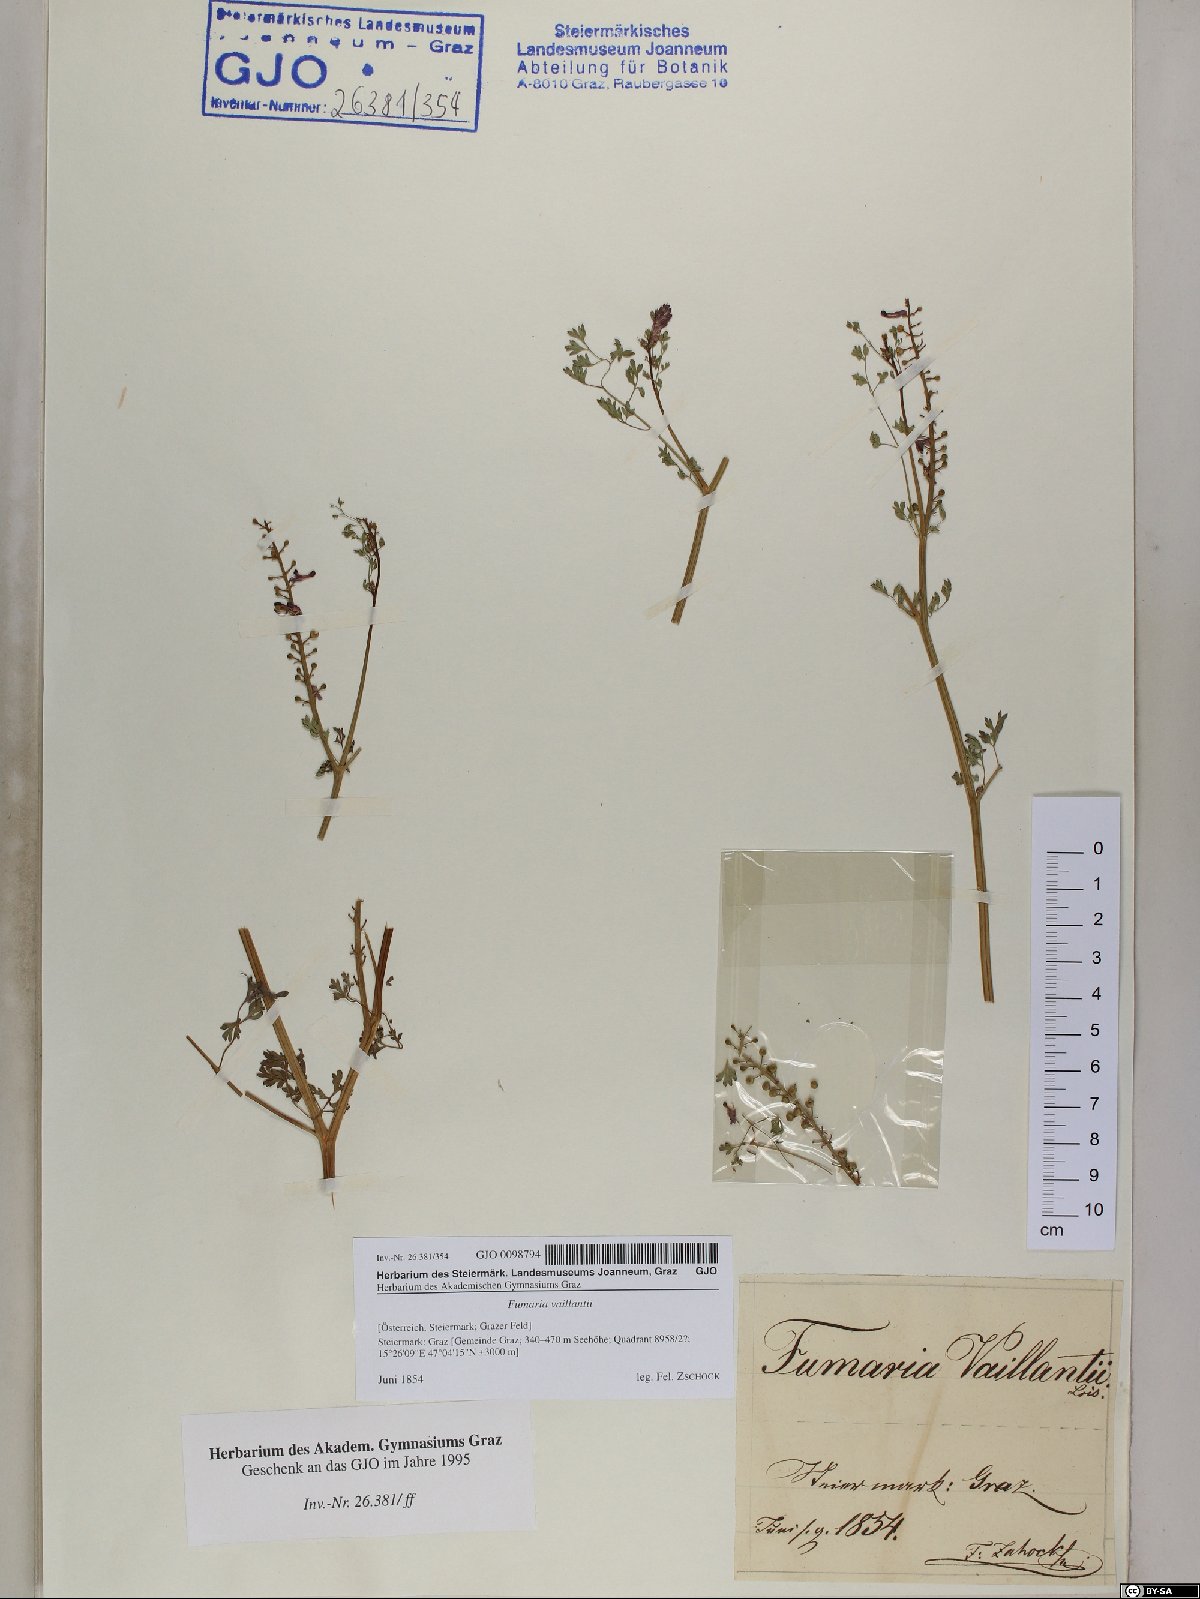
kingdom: Plantae
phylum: Tracheophyta
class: Magnoliopsida
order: Ranunculales
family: Papaveraceae
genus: Fumaria
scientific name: Fumaria vaillantii
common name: Few-flowered fumitory
